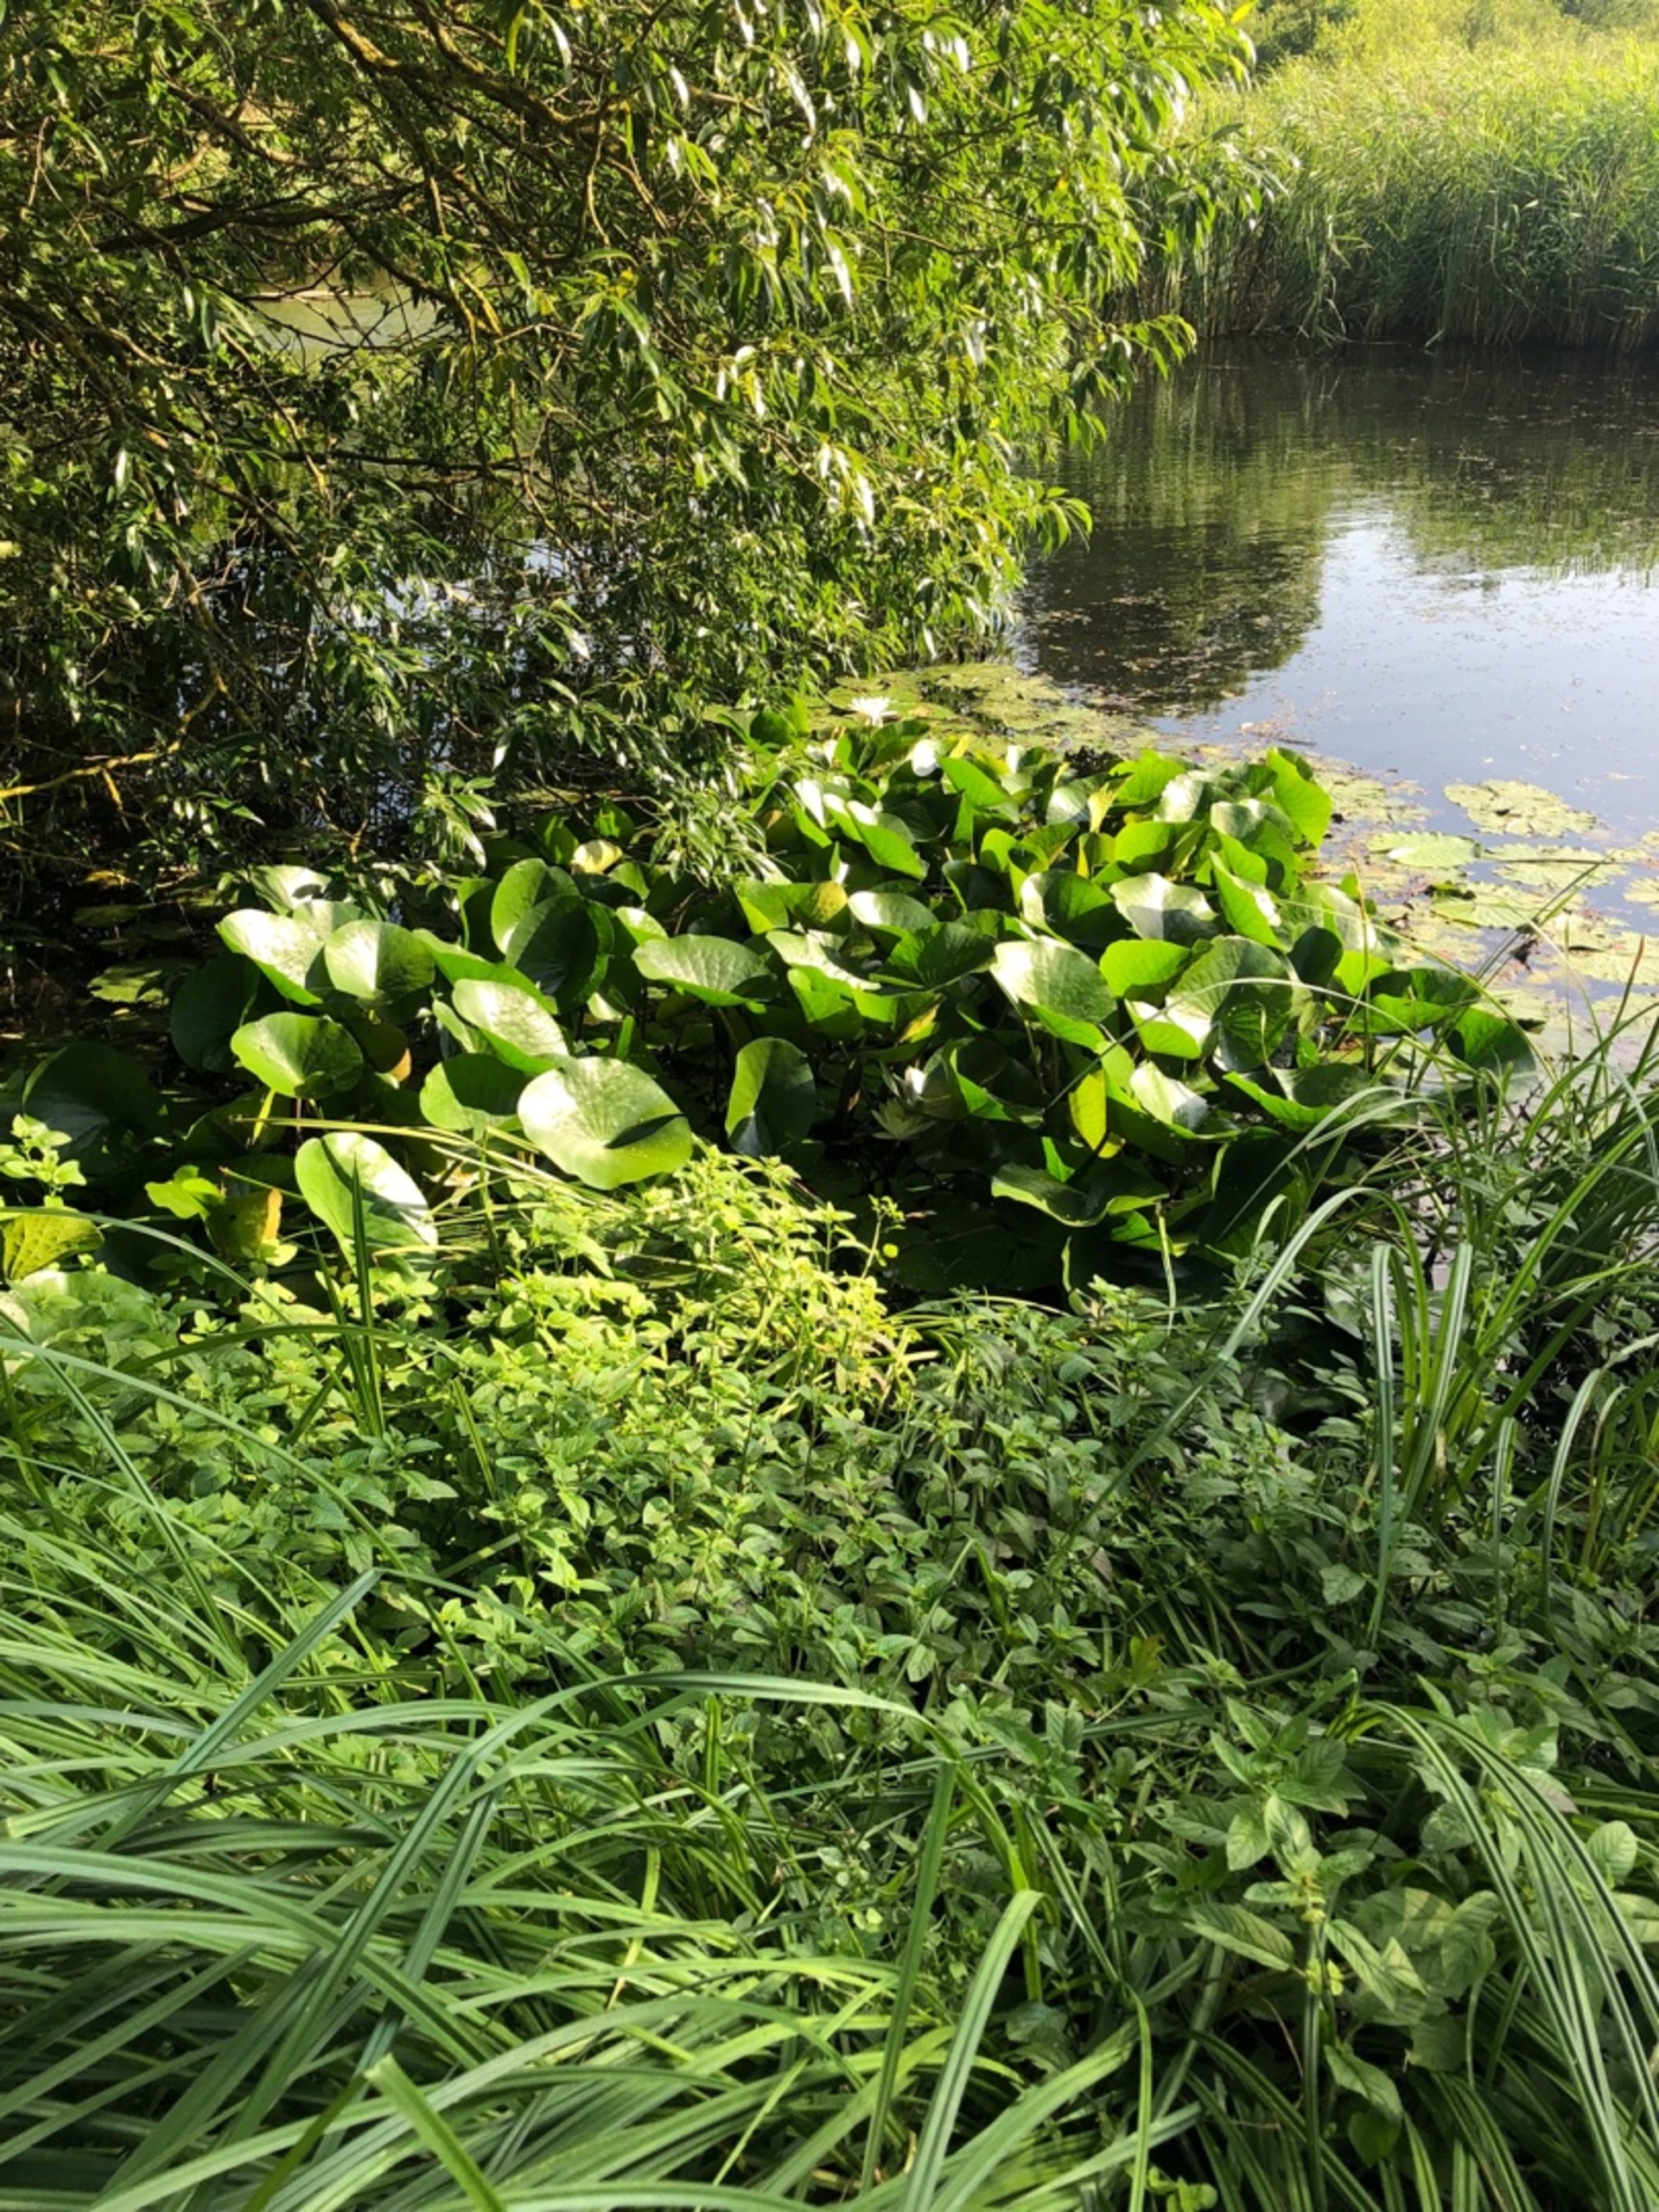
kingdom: Plantae
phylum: Tracheophyta
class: Magnoliopsida
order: Nymphaeales
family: Nymphaeaceae
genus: Nymphaea
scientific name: Nymphaea alba
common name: Hvid åkande
